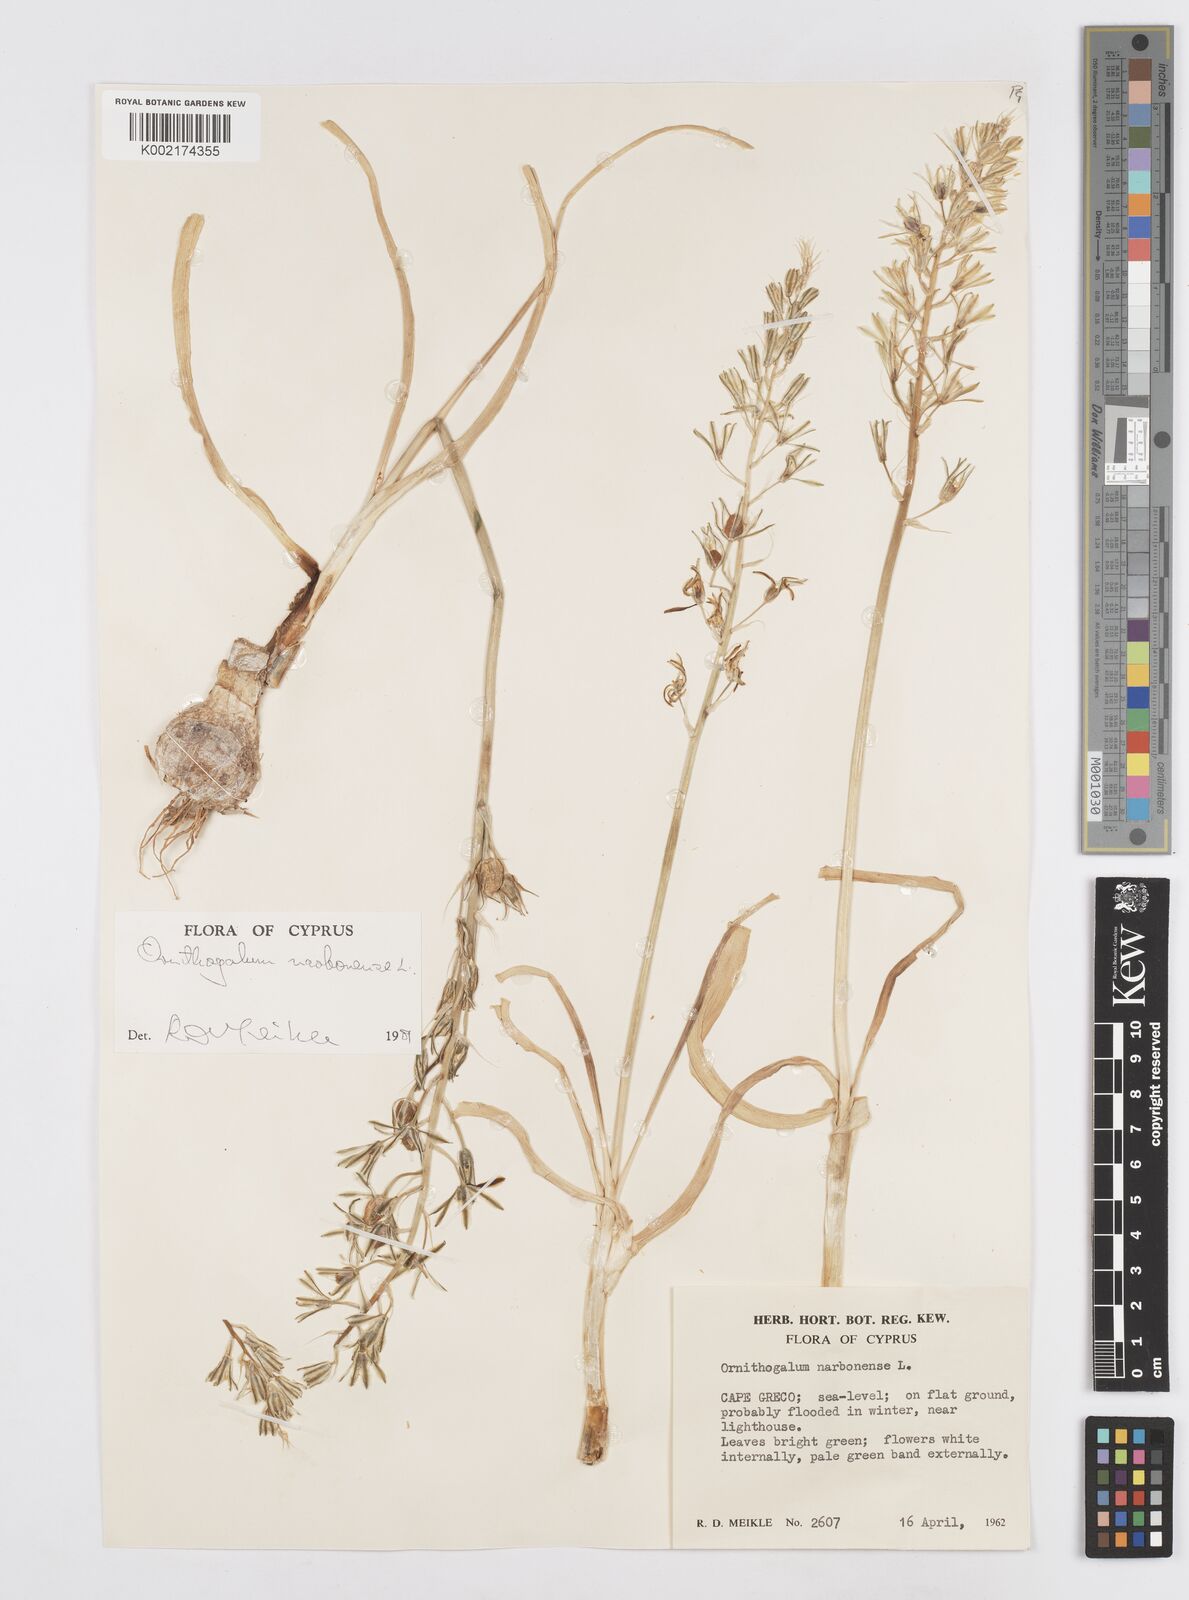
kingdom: Plantae
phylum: Tracheophyta
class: Liliopsida
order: Asparagales
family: Asparagaceae
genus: Ornithogalum
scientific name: Ornithogalum narbonense
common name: Bath-asparagus
